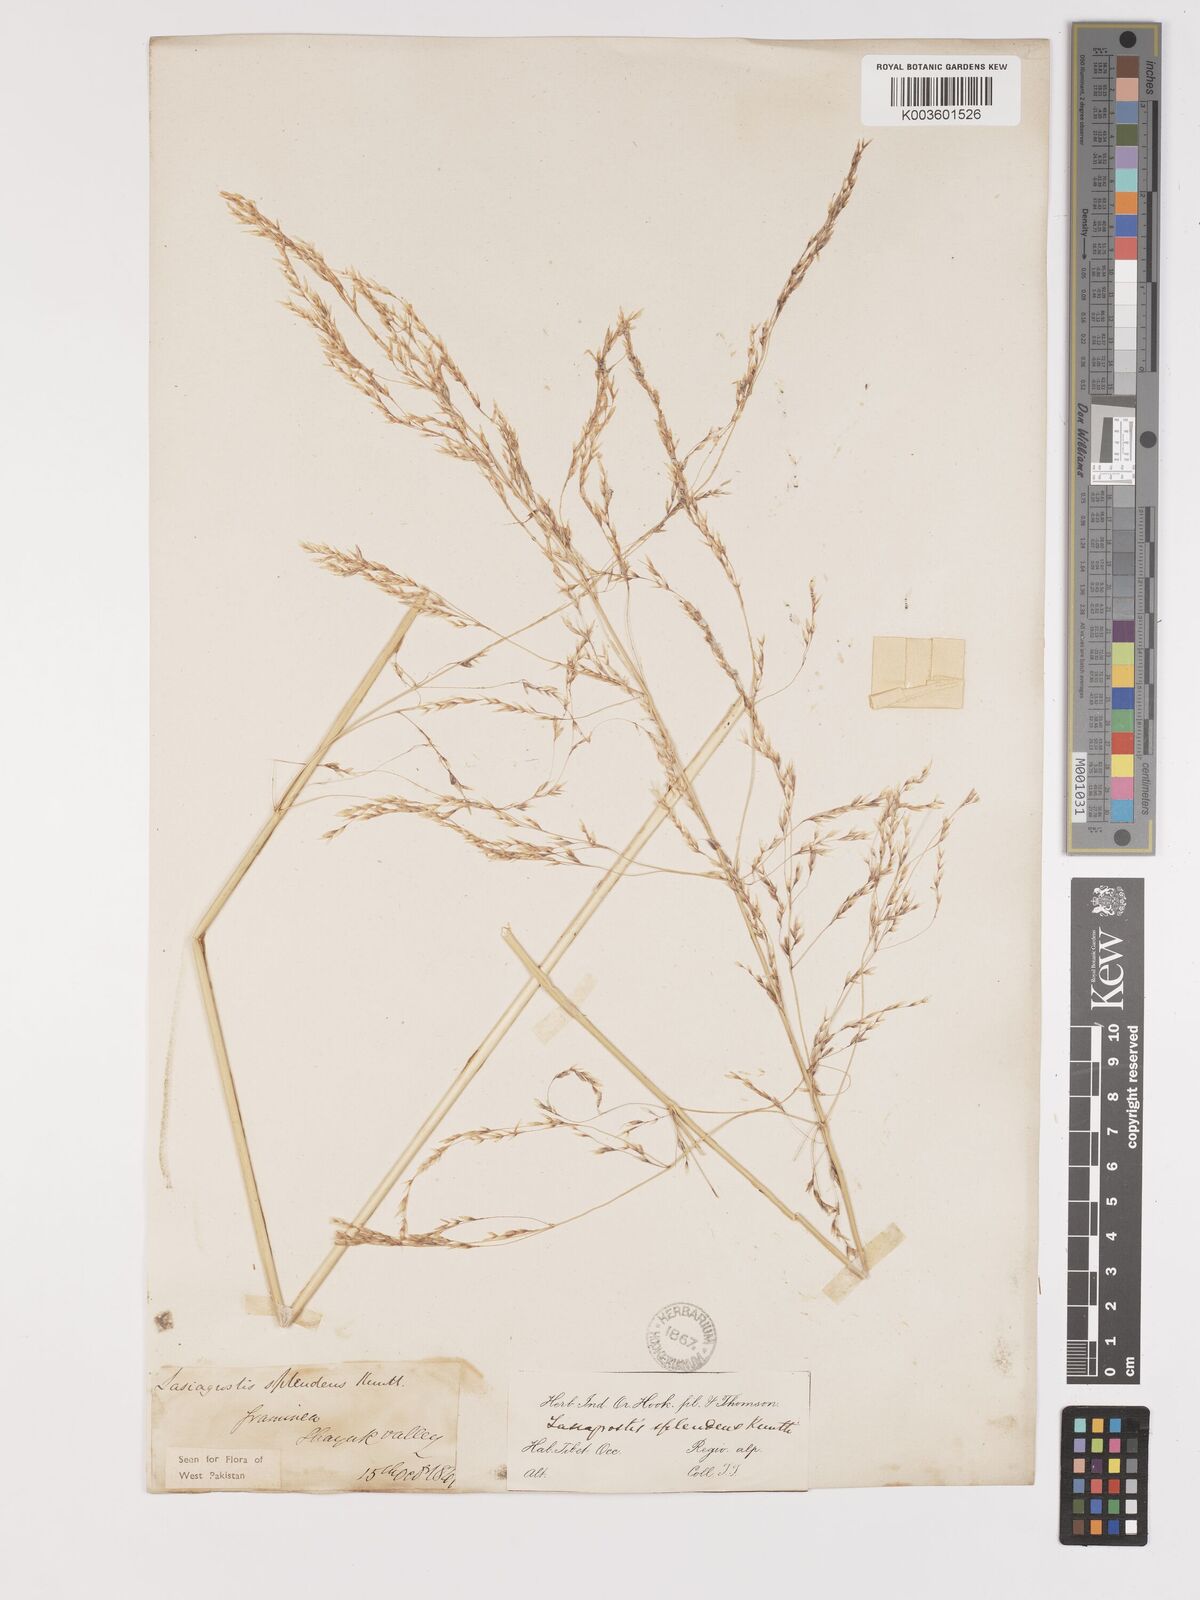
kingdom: Plantae
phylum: Tracheophyta
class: Liliopsida
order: Poales
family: Poaceae
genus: Neotrinia
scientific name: Neotrinia splendens
